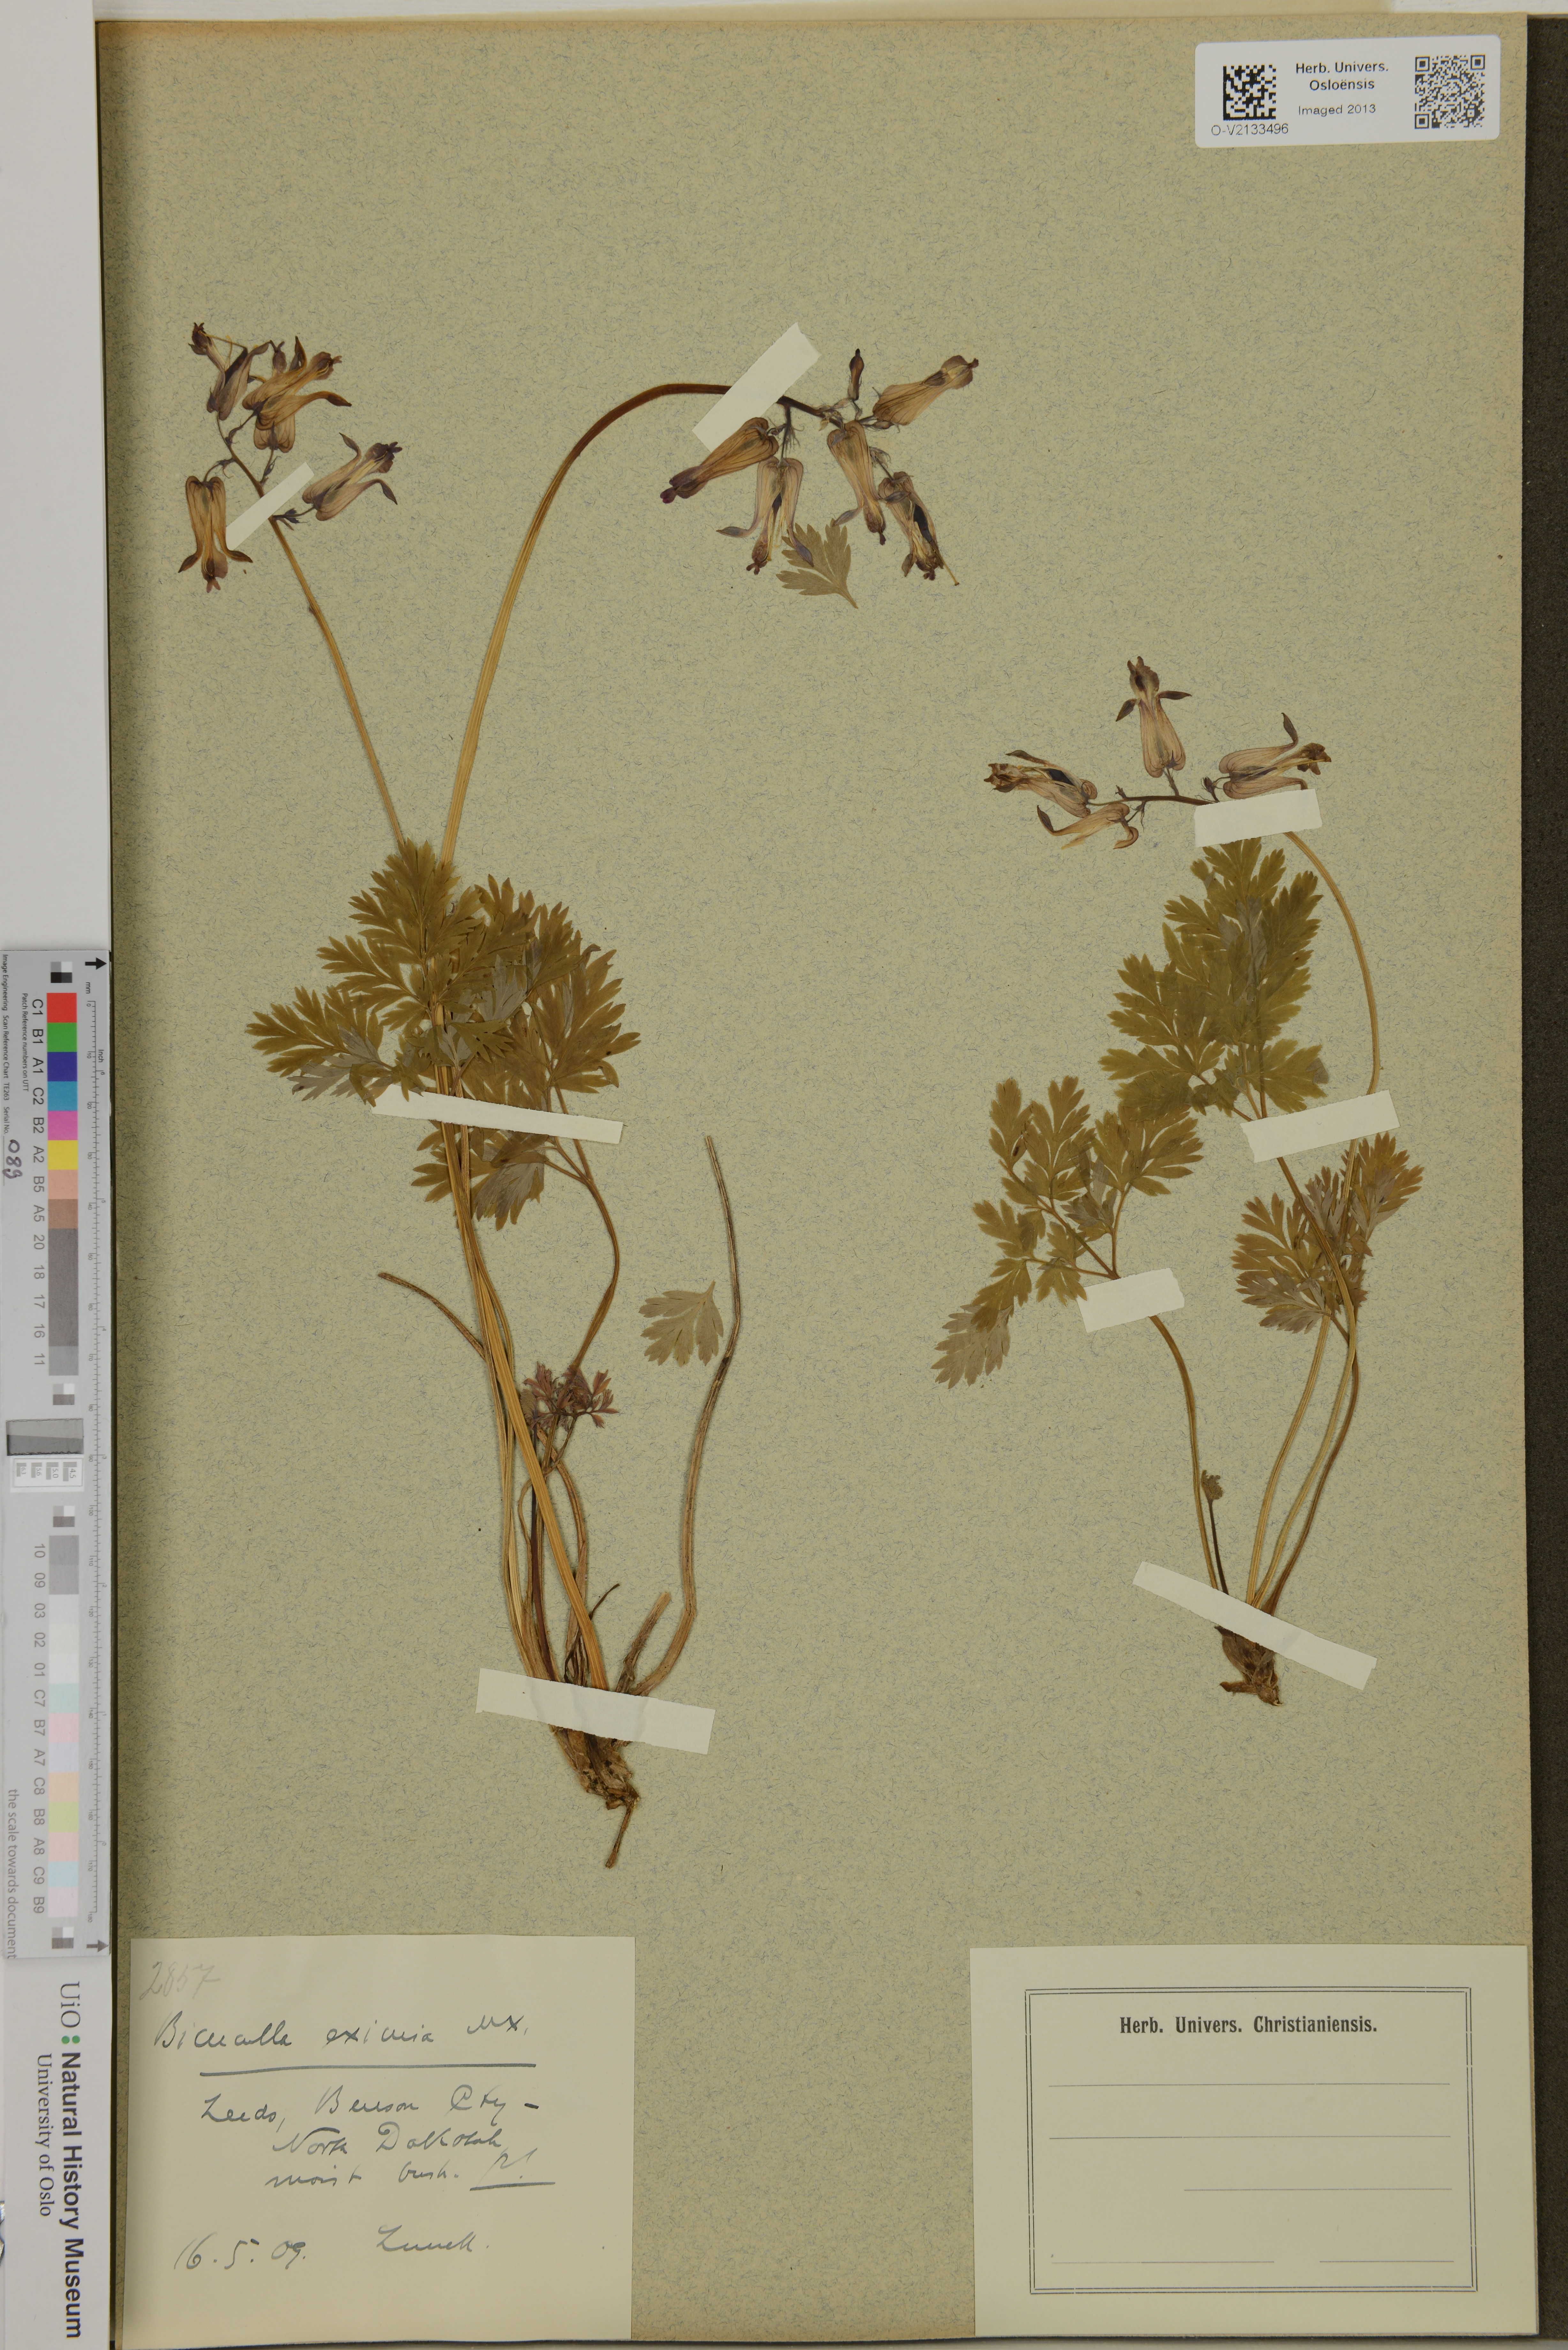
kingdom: Plantae
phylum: Tracheophyta
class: Magnoliopsida
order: Ranunculales
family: Papaveraceae
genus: Dicentra
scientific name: Dicentra eximia
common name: Turkey-corn
